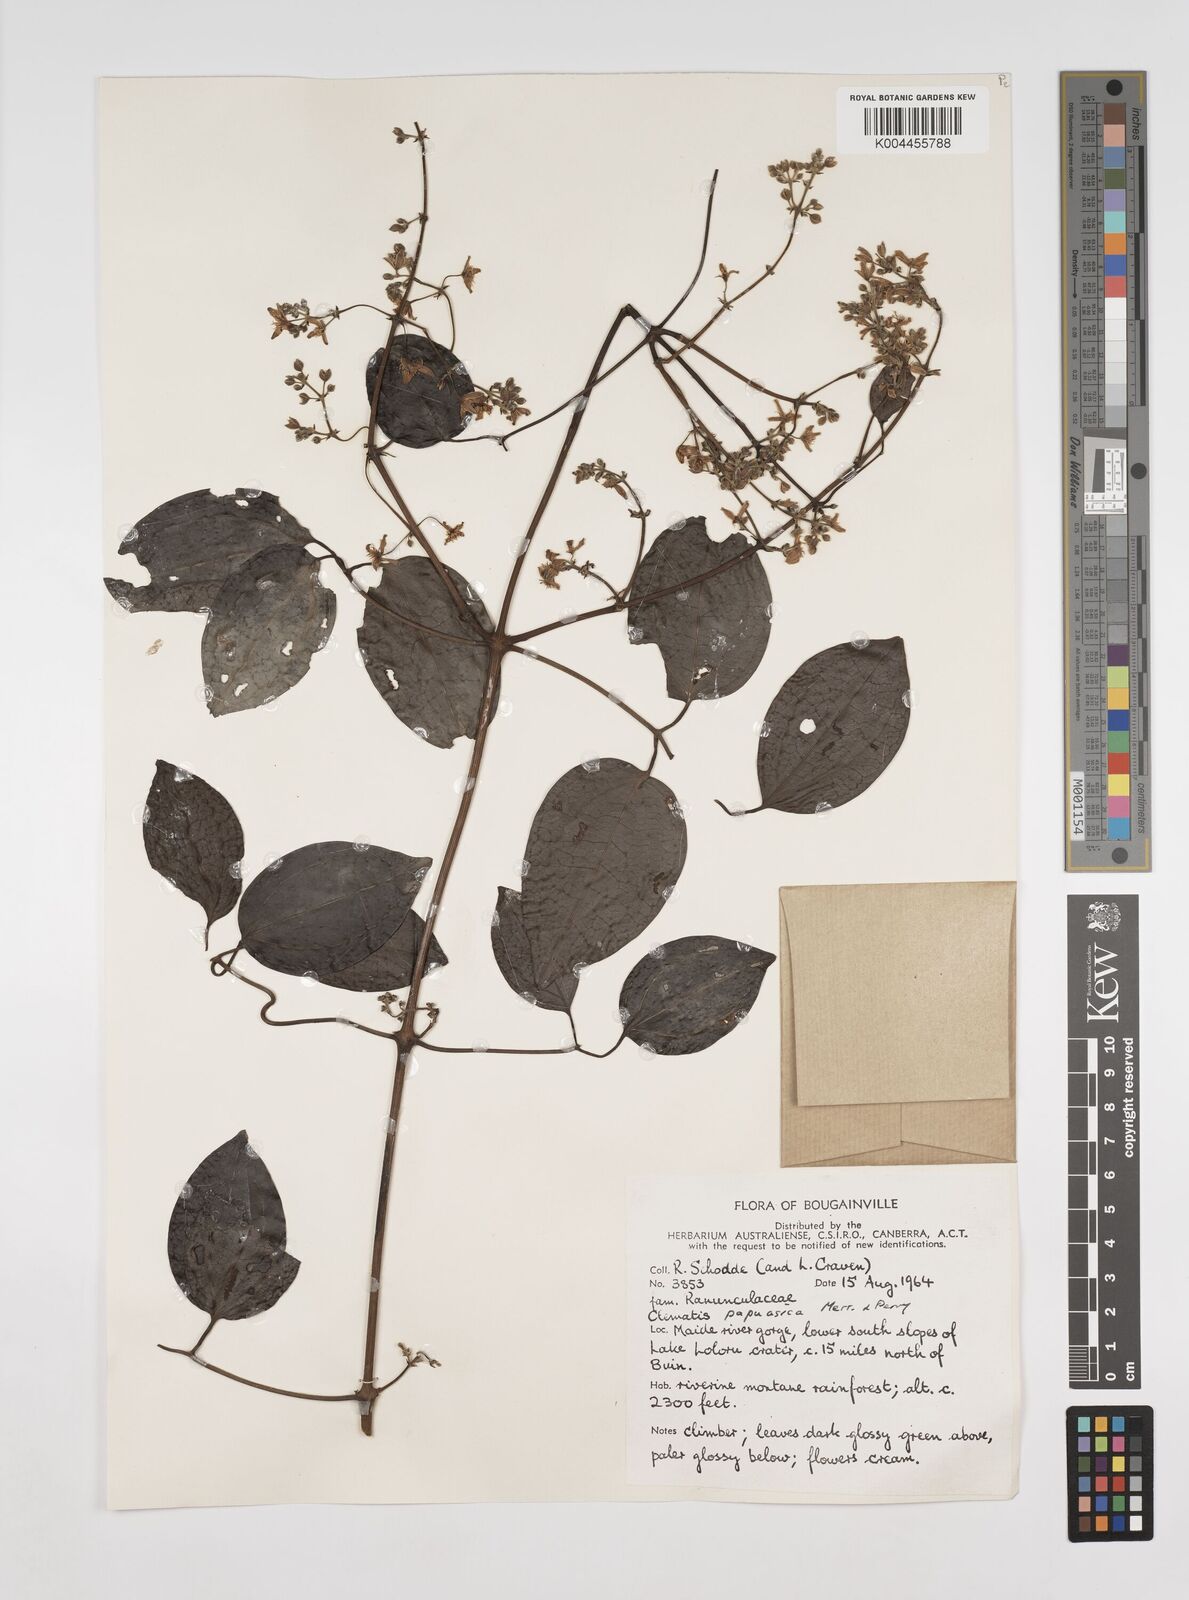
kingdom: Plantae
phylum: Tracheophyta
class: Magnoliopsida
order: Ranunculales
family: Ranunculaceae
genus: Clematis
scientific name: Clematis papuasica
